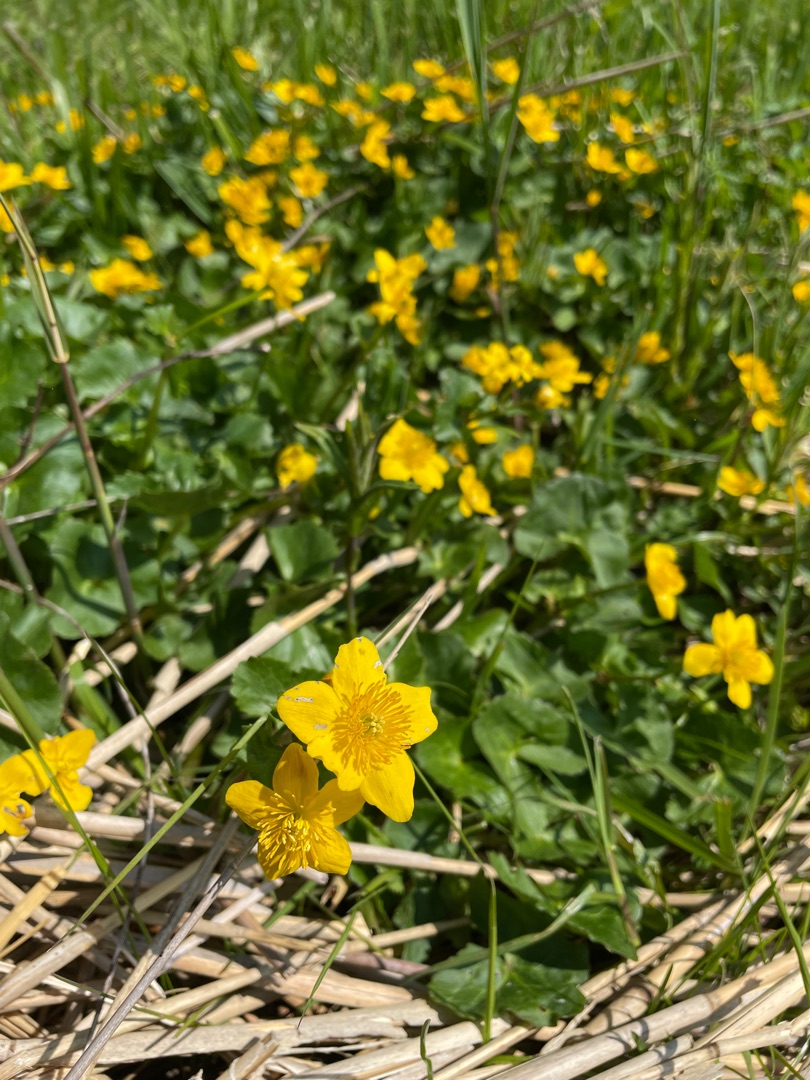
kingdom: Plantae
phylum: Tracheophyta
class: Magnoliopsida
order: Ranunculales
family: Ranunculaceae
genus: Caltha
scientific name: Caltha palustris
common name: Eng-kabbeleje
